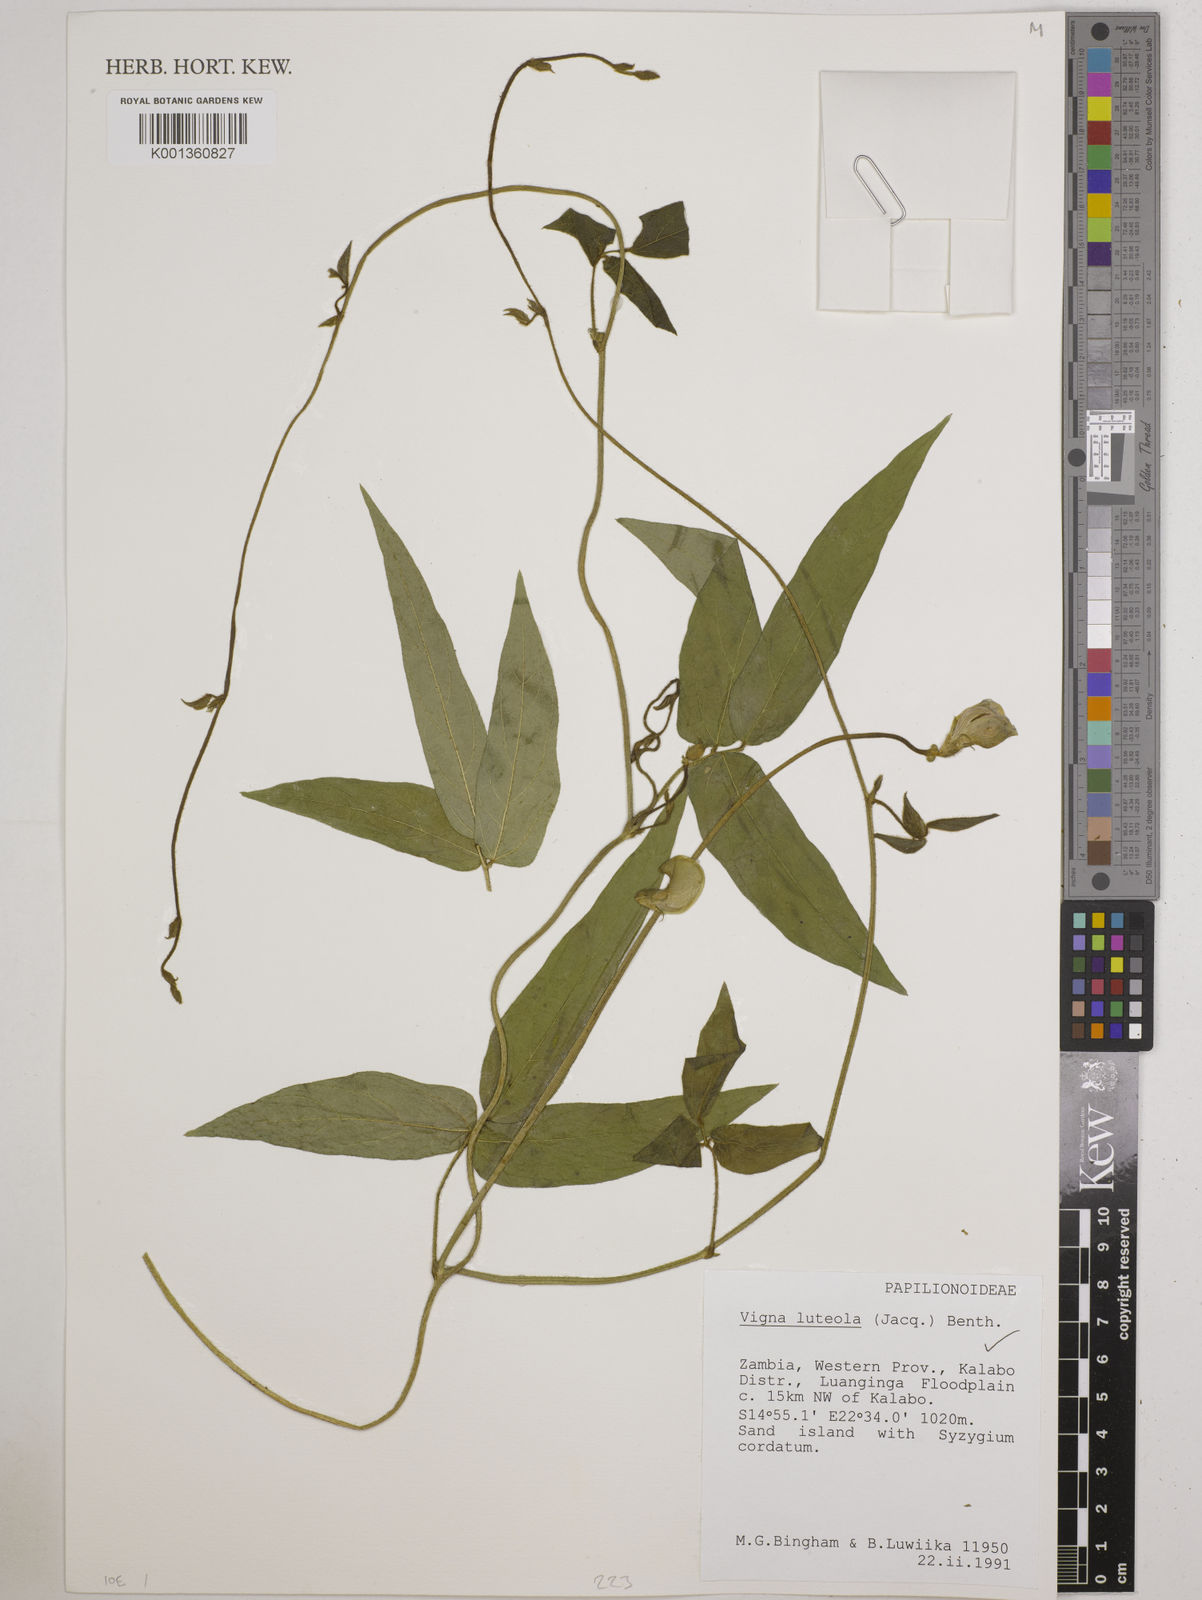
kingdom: Plantae
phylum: Tracheophyta
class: Magnoliopsida
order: Fabales
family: Fabaceae
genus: Vigna
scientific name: Vigna luteola
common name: Hairypod cowpea
